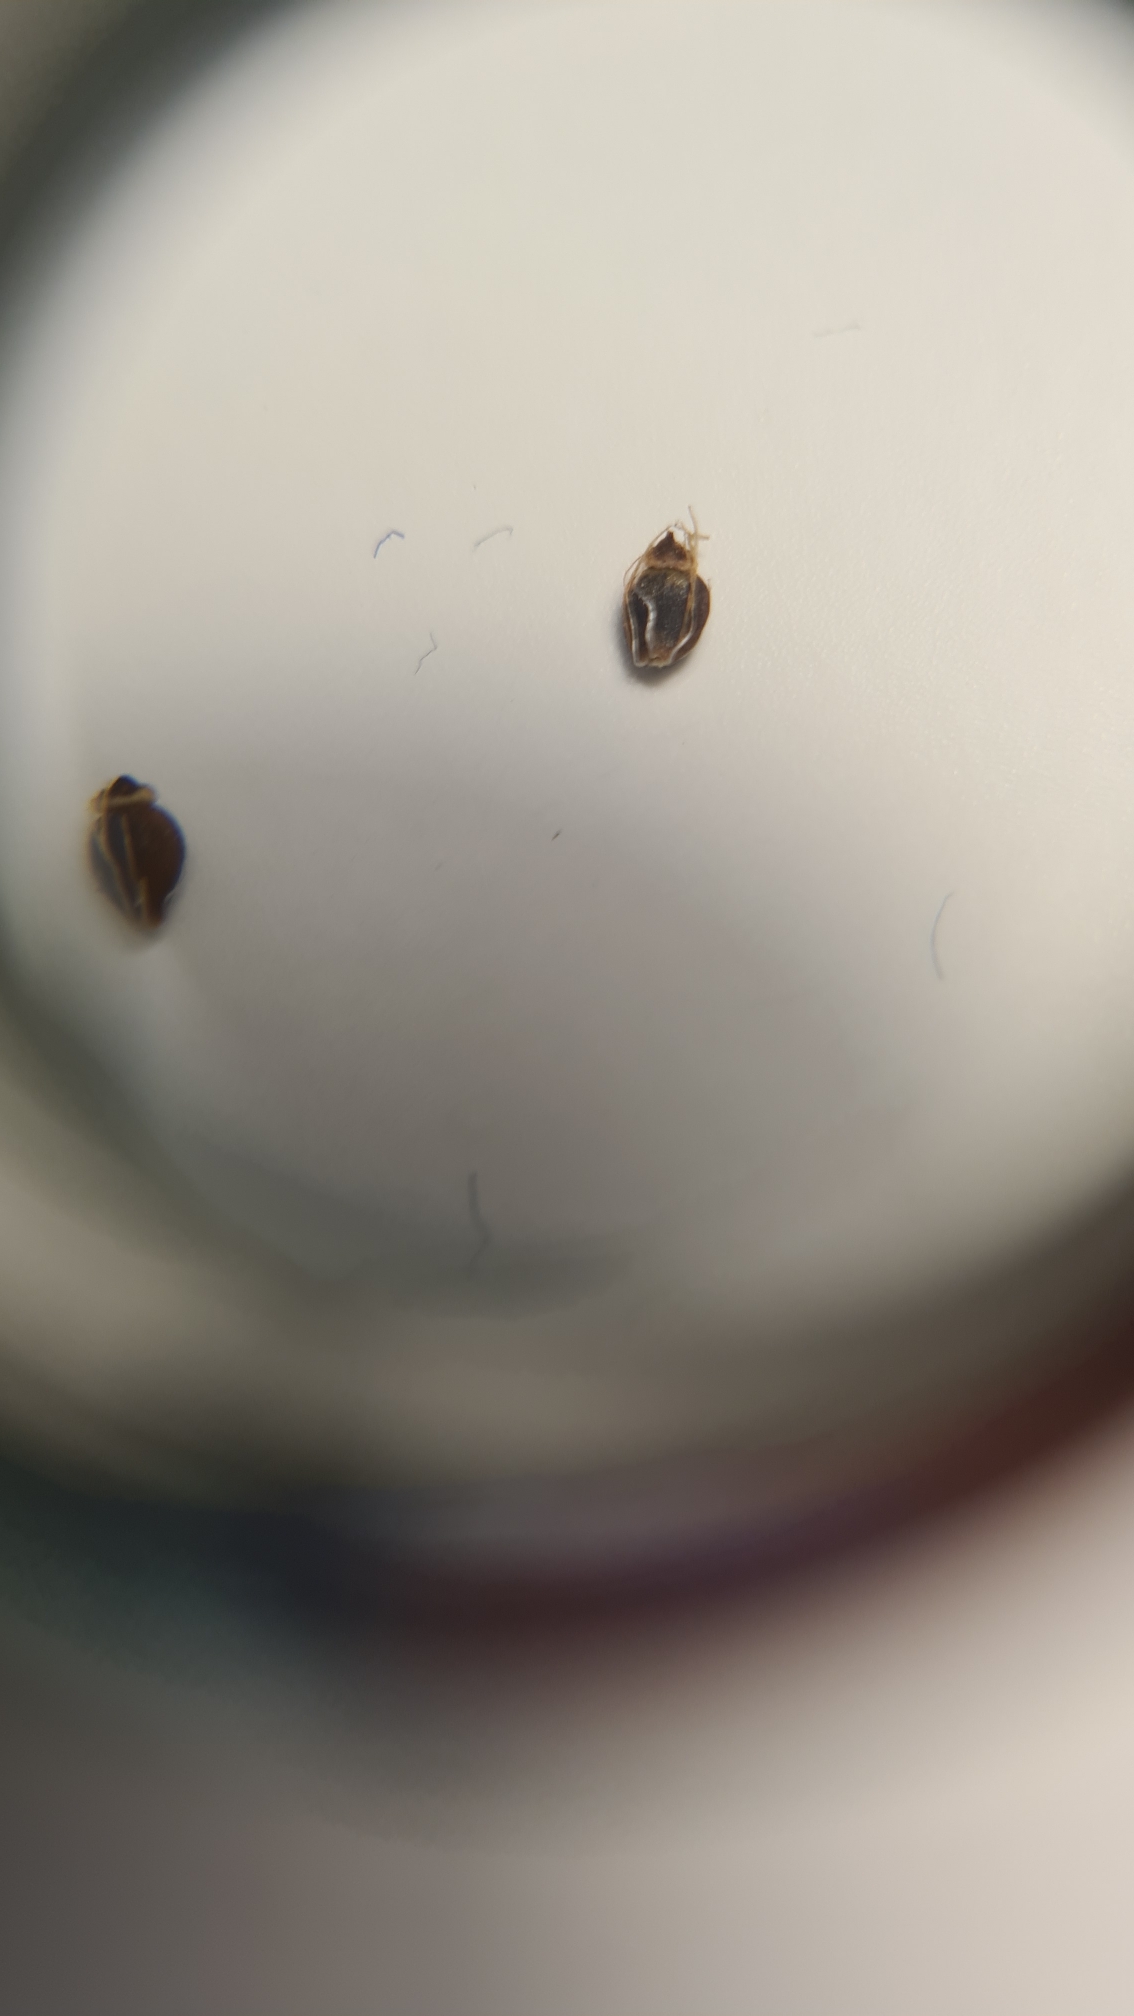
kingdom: Plantae
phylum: Tracheophyta
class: Liliopsida
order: Poales
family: Cyperaceae
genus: Eleocharis
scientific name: Eleocharis uniglumis
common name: Enskællet sumpstrå
